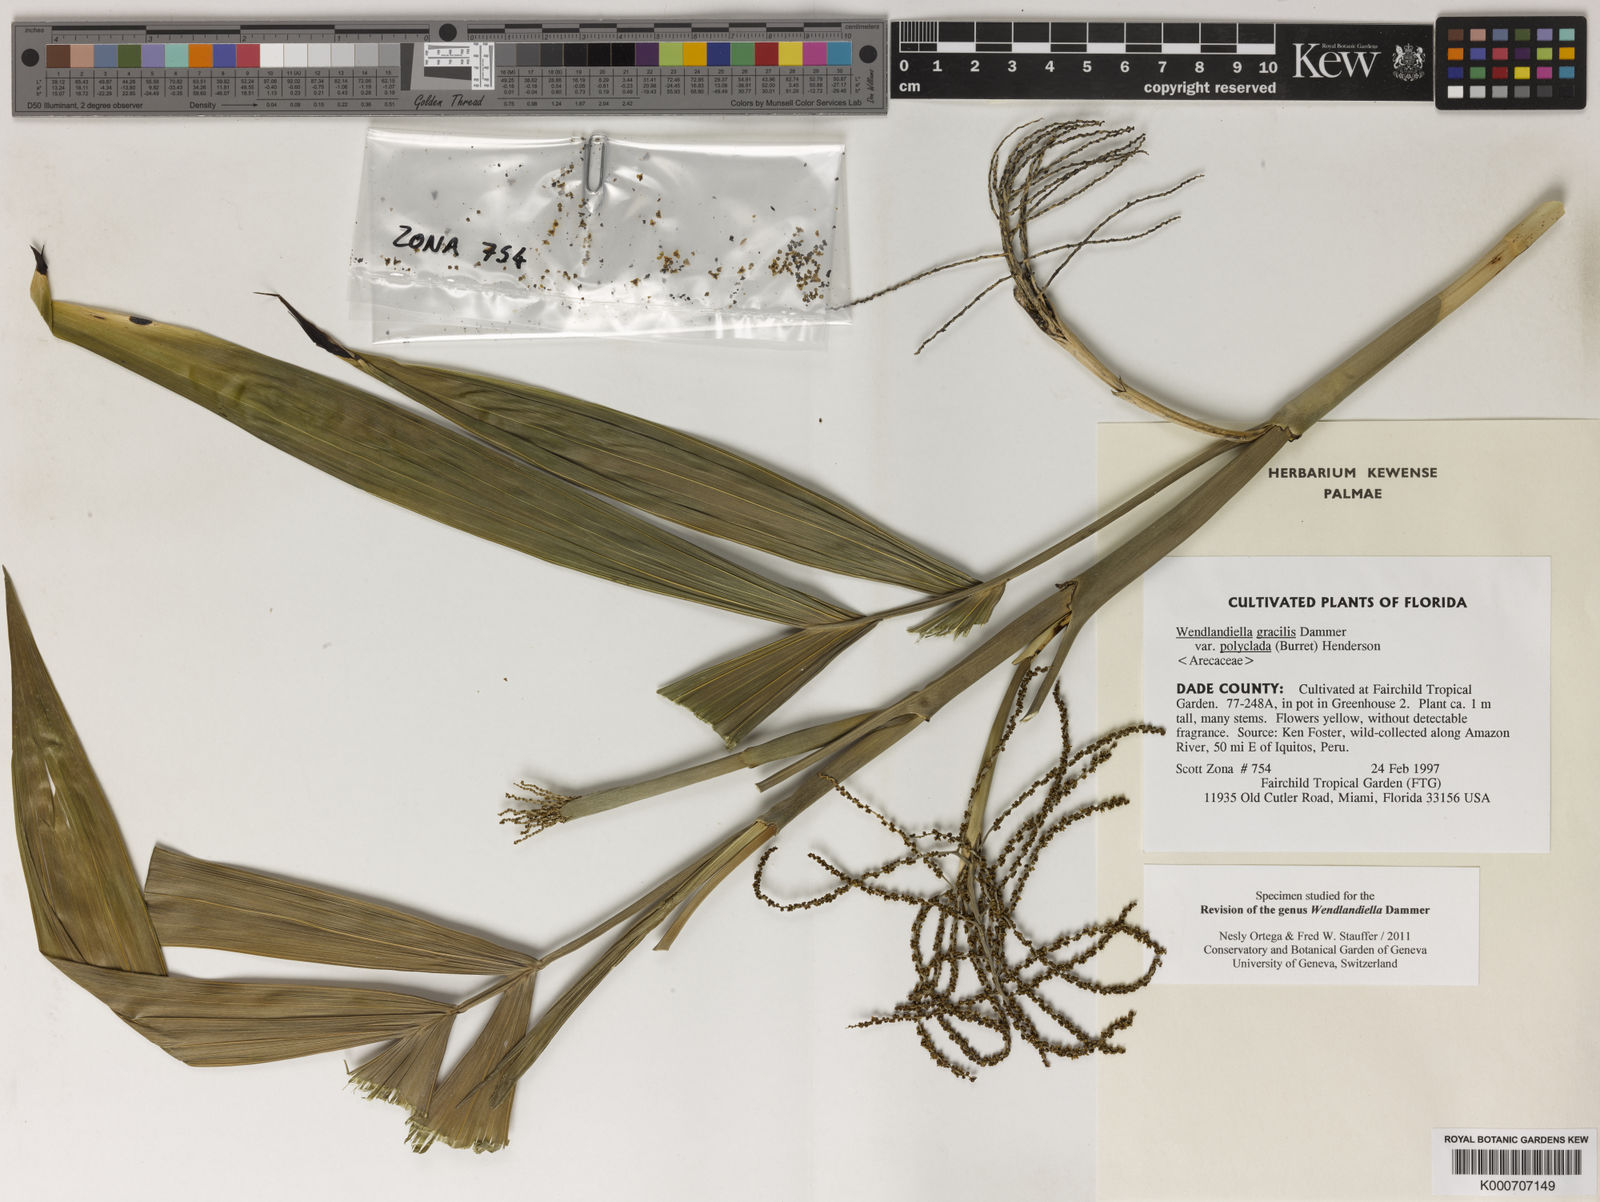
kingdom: Plantae
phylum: Tracheophyta
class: Liliopsida
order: Arecales
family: Arecaceae
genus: Wendlandiella
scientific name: Wendlandiella gracilis
